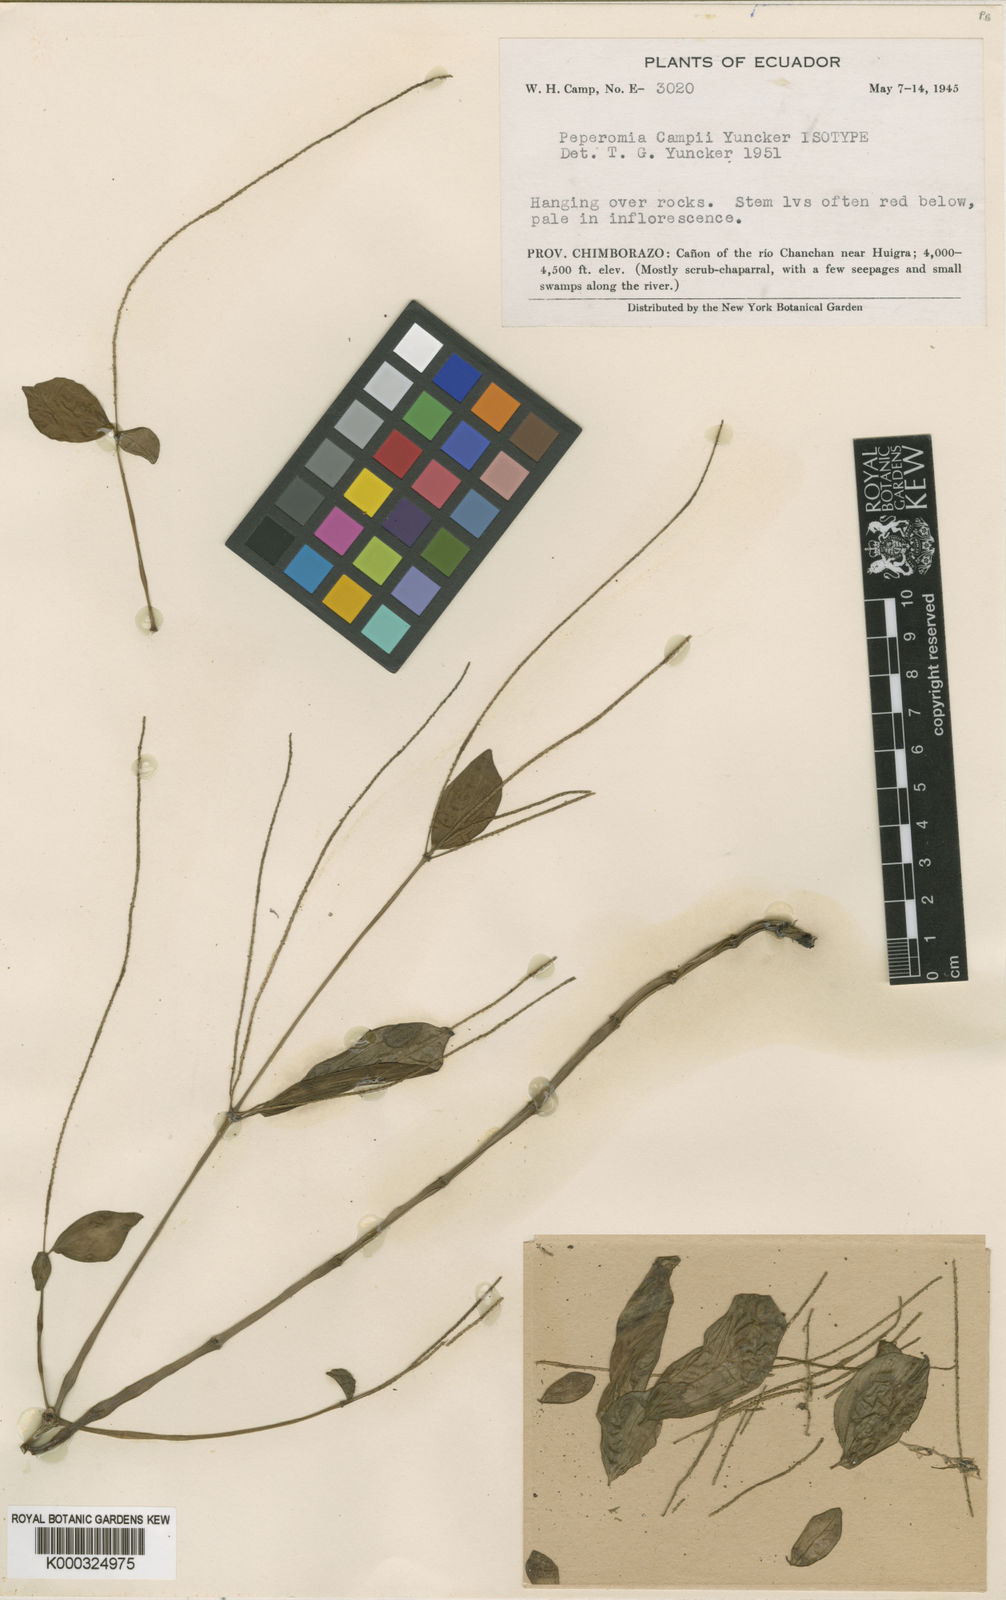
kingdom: Plantae
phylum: Tracheophyta
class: Magnoliopsida
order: Piperales
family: Piperaceae
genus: Peperomia
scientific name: Peperomia apodophylla
